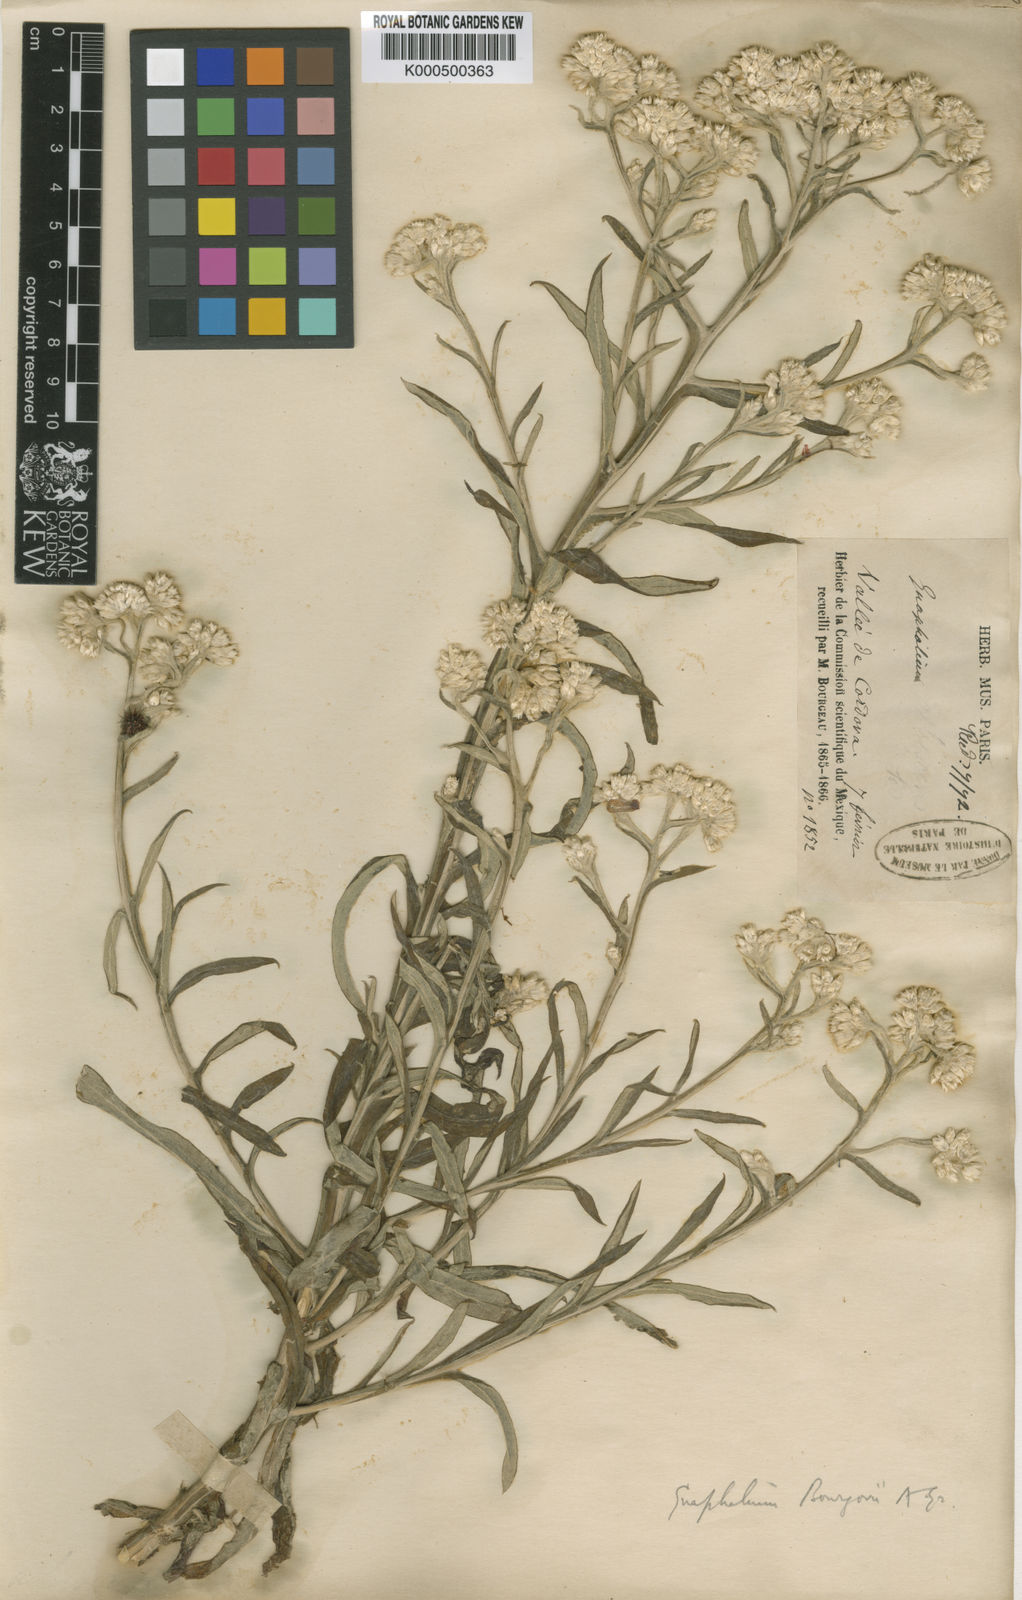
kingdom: Plantae
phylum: Tracheophyta
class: Magnoliopsida
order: Asterales
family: Asteraceae
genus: Pseudognaphalium
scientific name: Pseudognaphalium bourgovii
